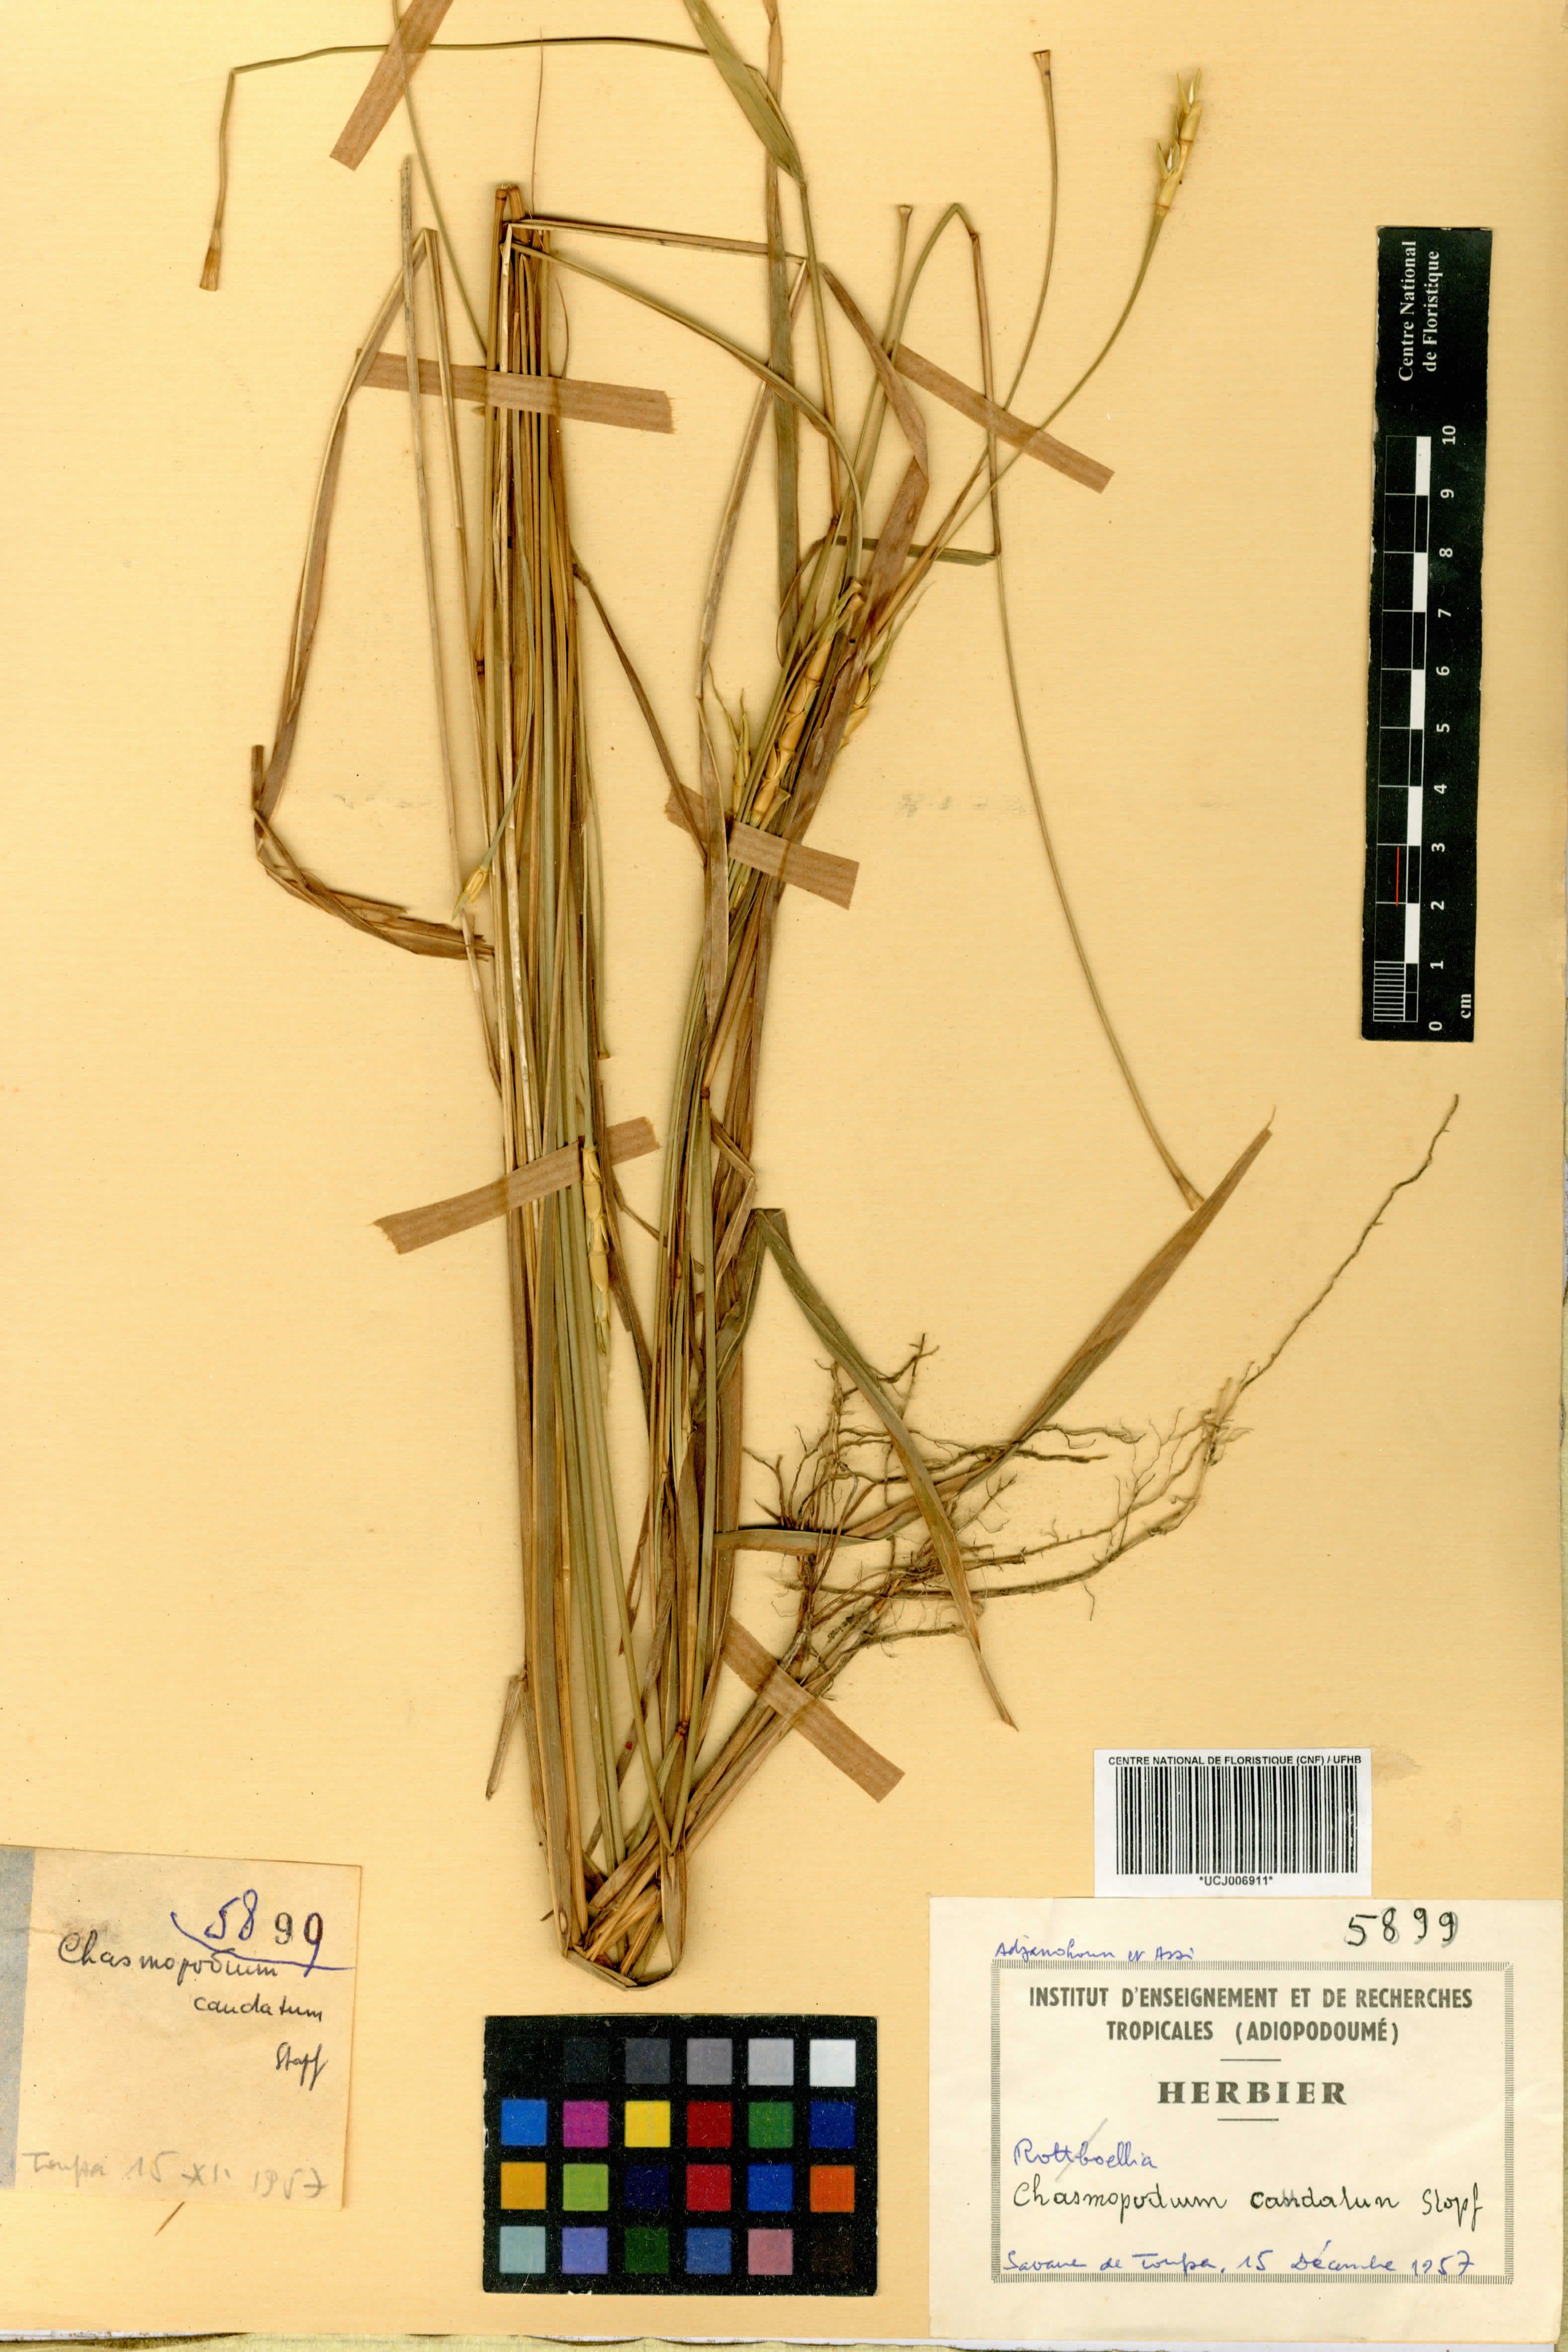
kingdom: Plantae
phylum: Tracheophyta
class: Liliopsida
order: Poales
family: Poaceae
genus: Chasmopodium
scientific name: Chasmopodium caudatum
